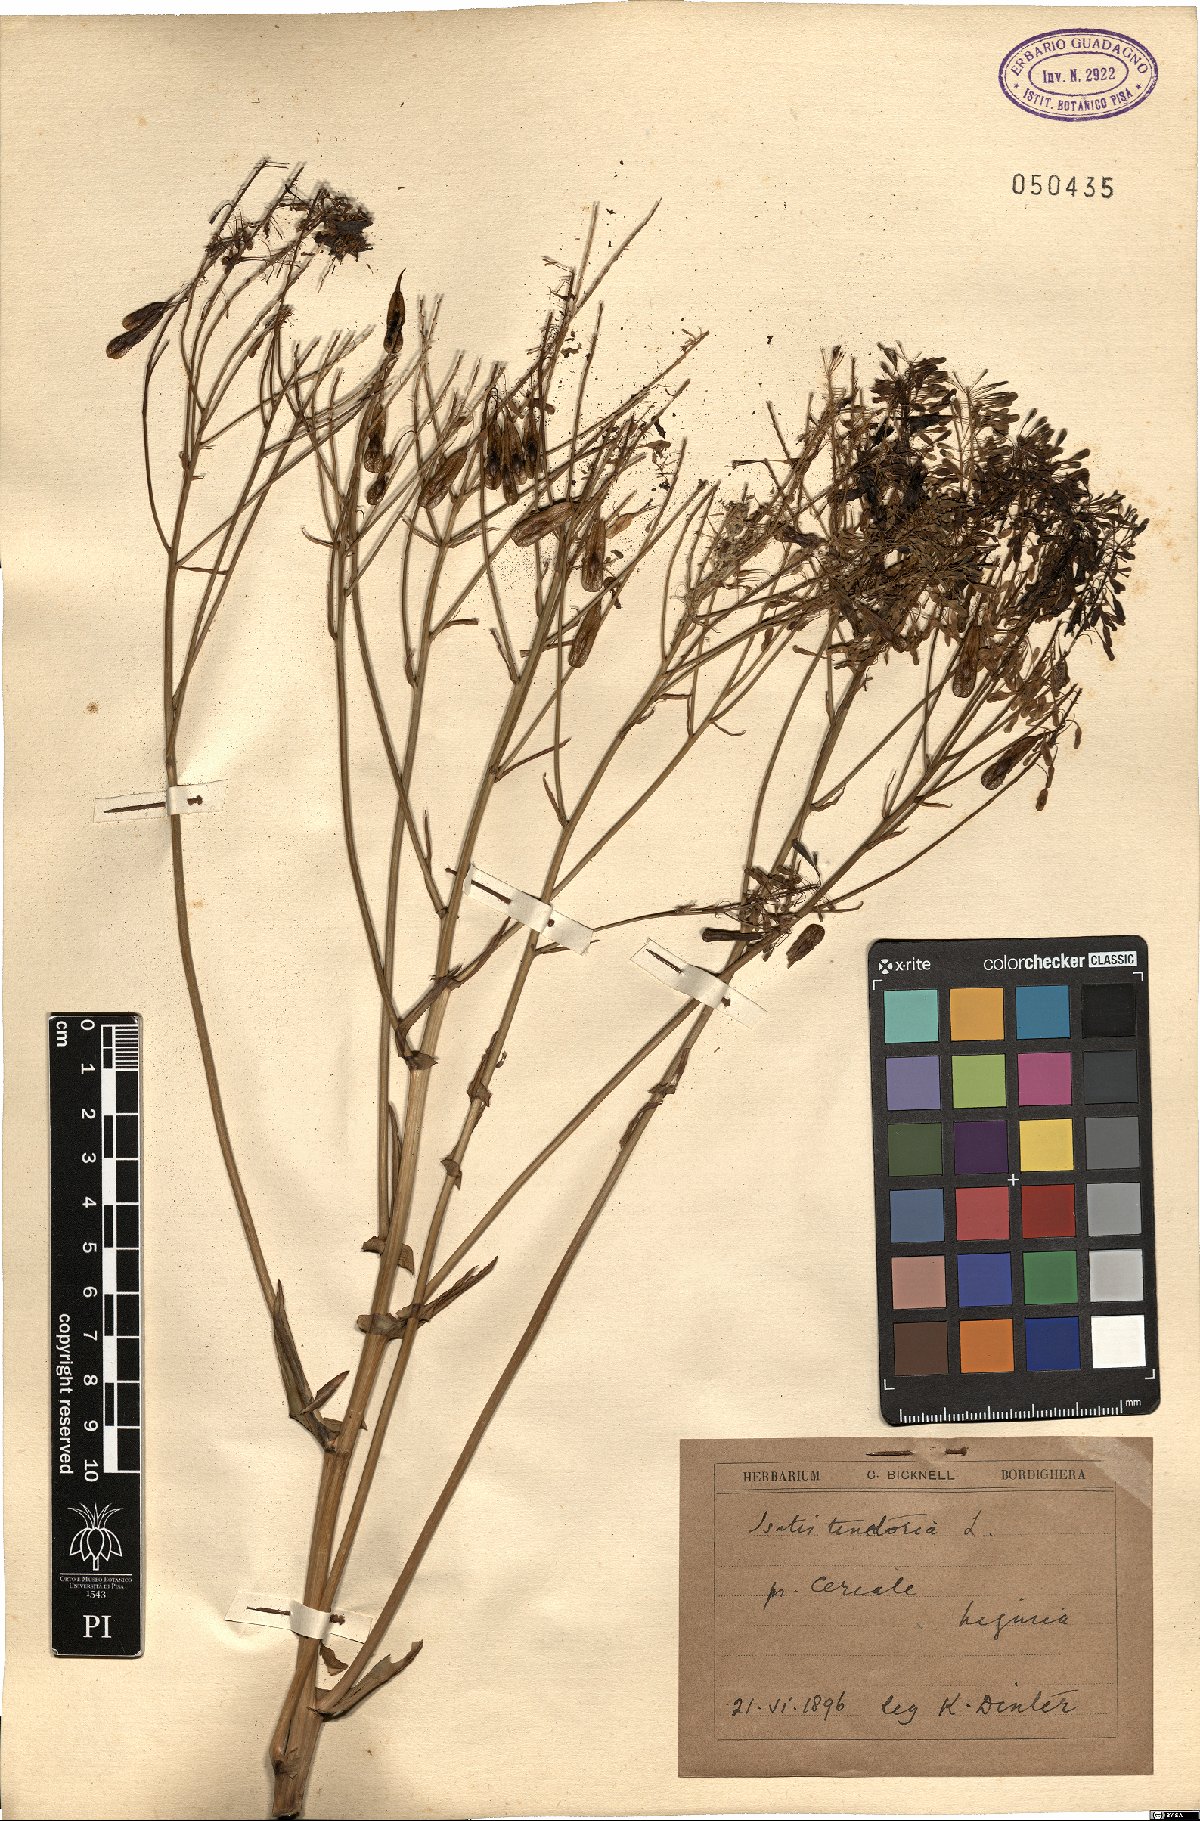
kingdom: Plantae
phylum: Tracheophyta
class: Magnoliopsida
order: Brassicales
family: Brassicaceae
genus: Isatis
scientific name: Isatis tinctoria
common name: Woad
